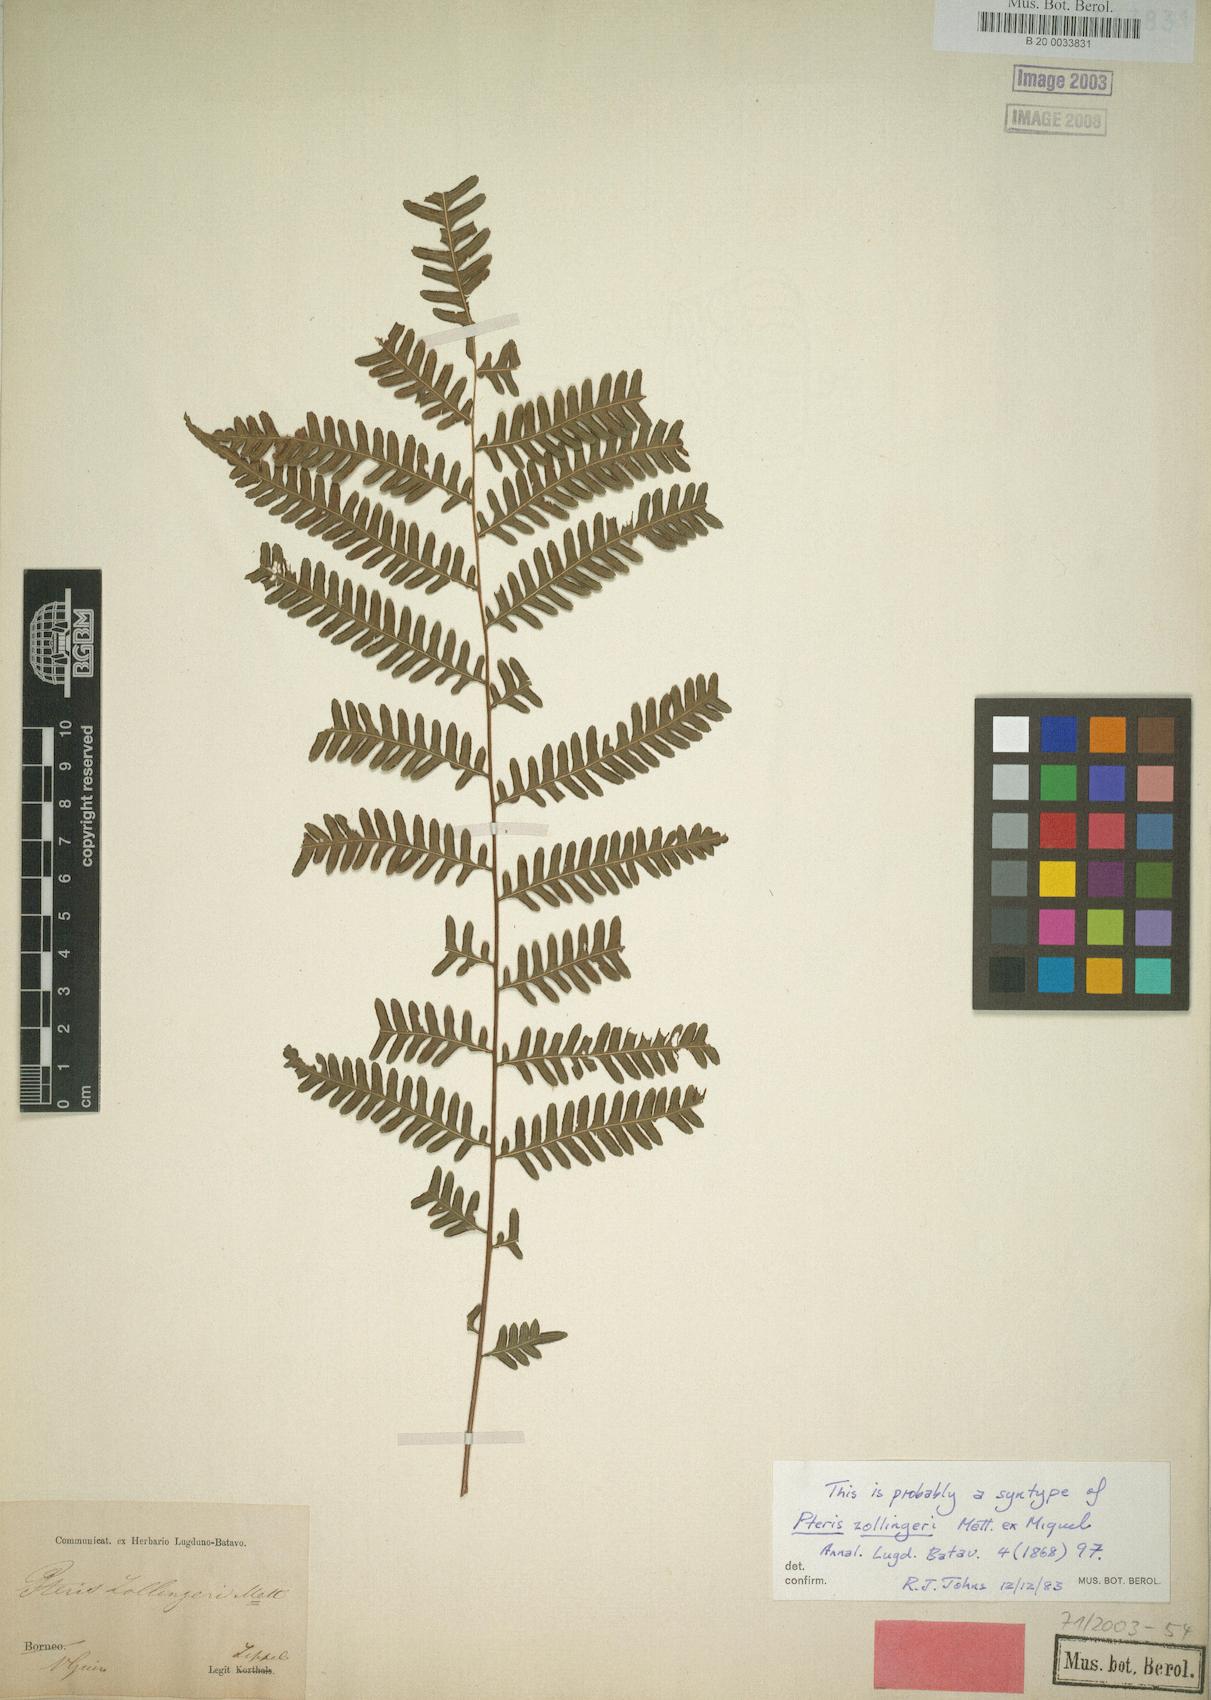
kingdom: Plantae
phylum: Tracheophyta
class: Polypodiopsida
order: Polypodiales
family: Pteridaceae
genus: Pteris
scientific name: Pteris pellucens
